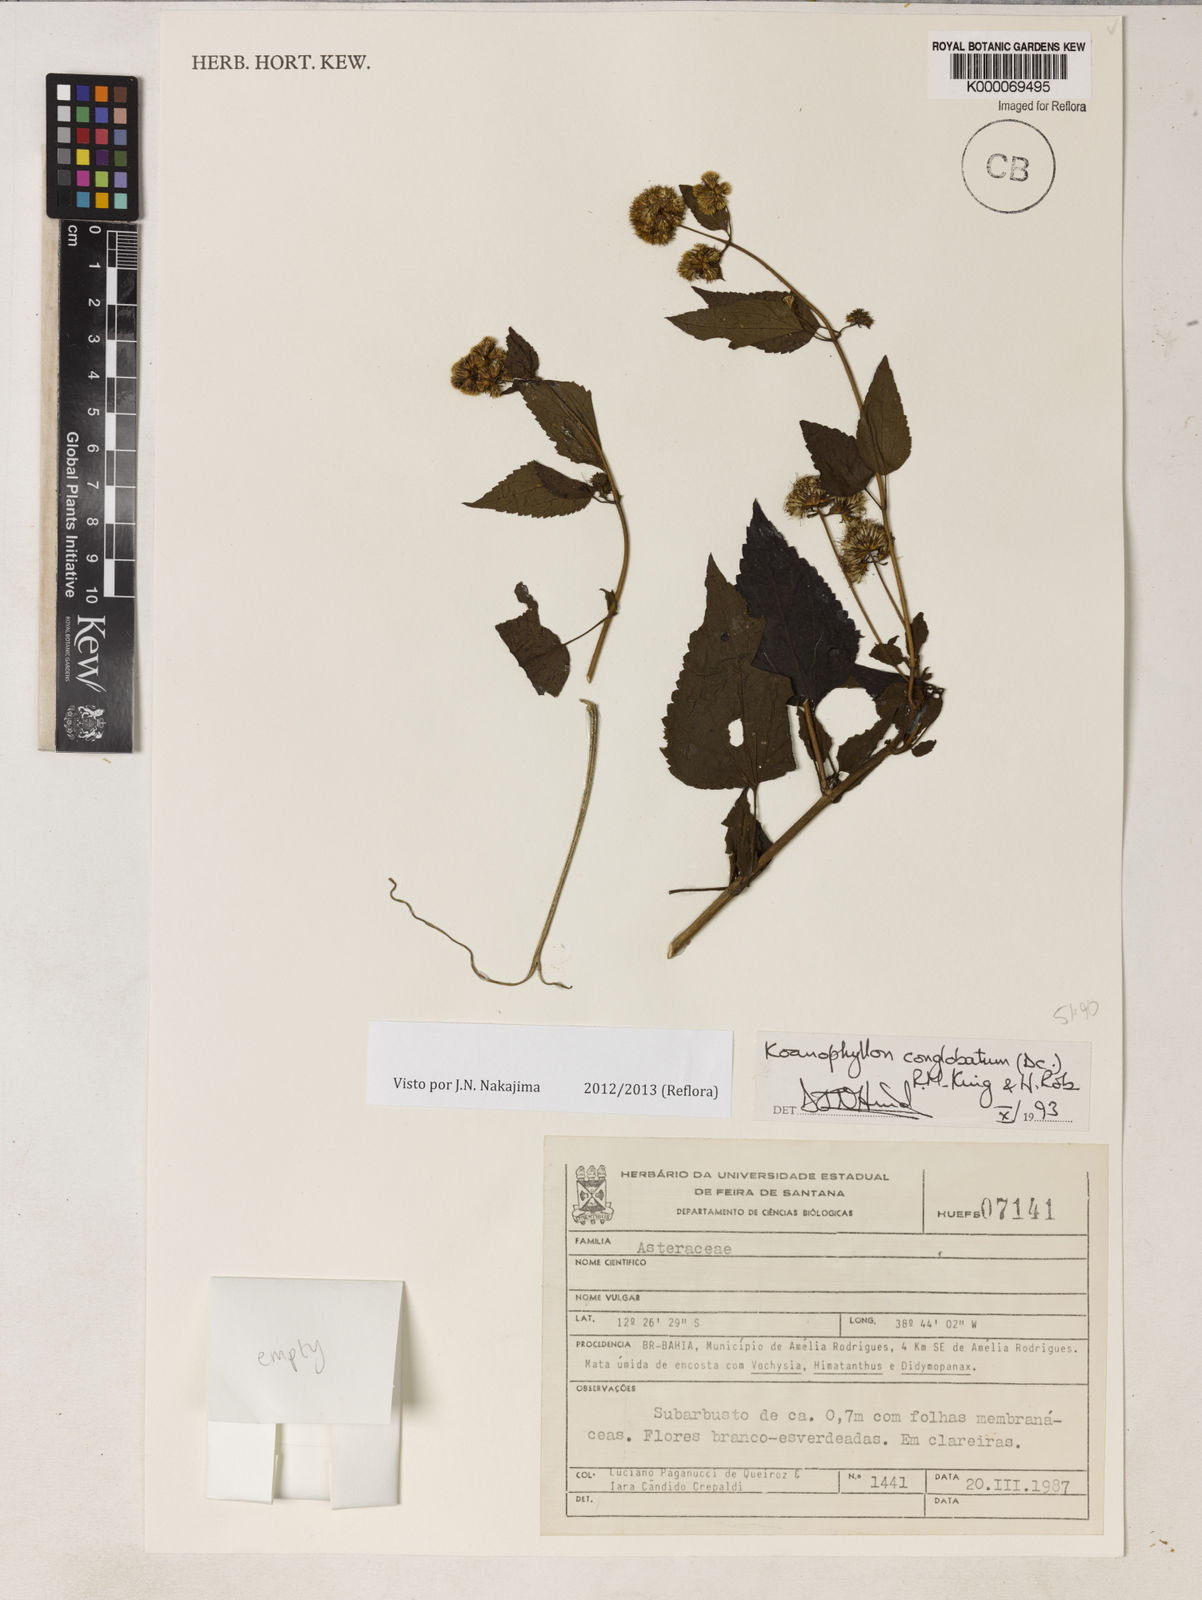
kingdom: Plantae
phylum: Tracheophyta
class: Magnoliopsida
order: Asterales
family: Asteraceae
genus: Koanophyllon
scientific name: Koanophyllon conglobatum
